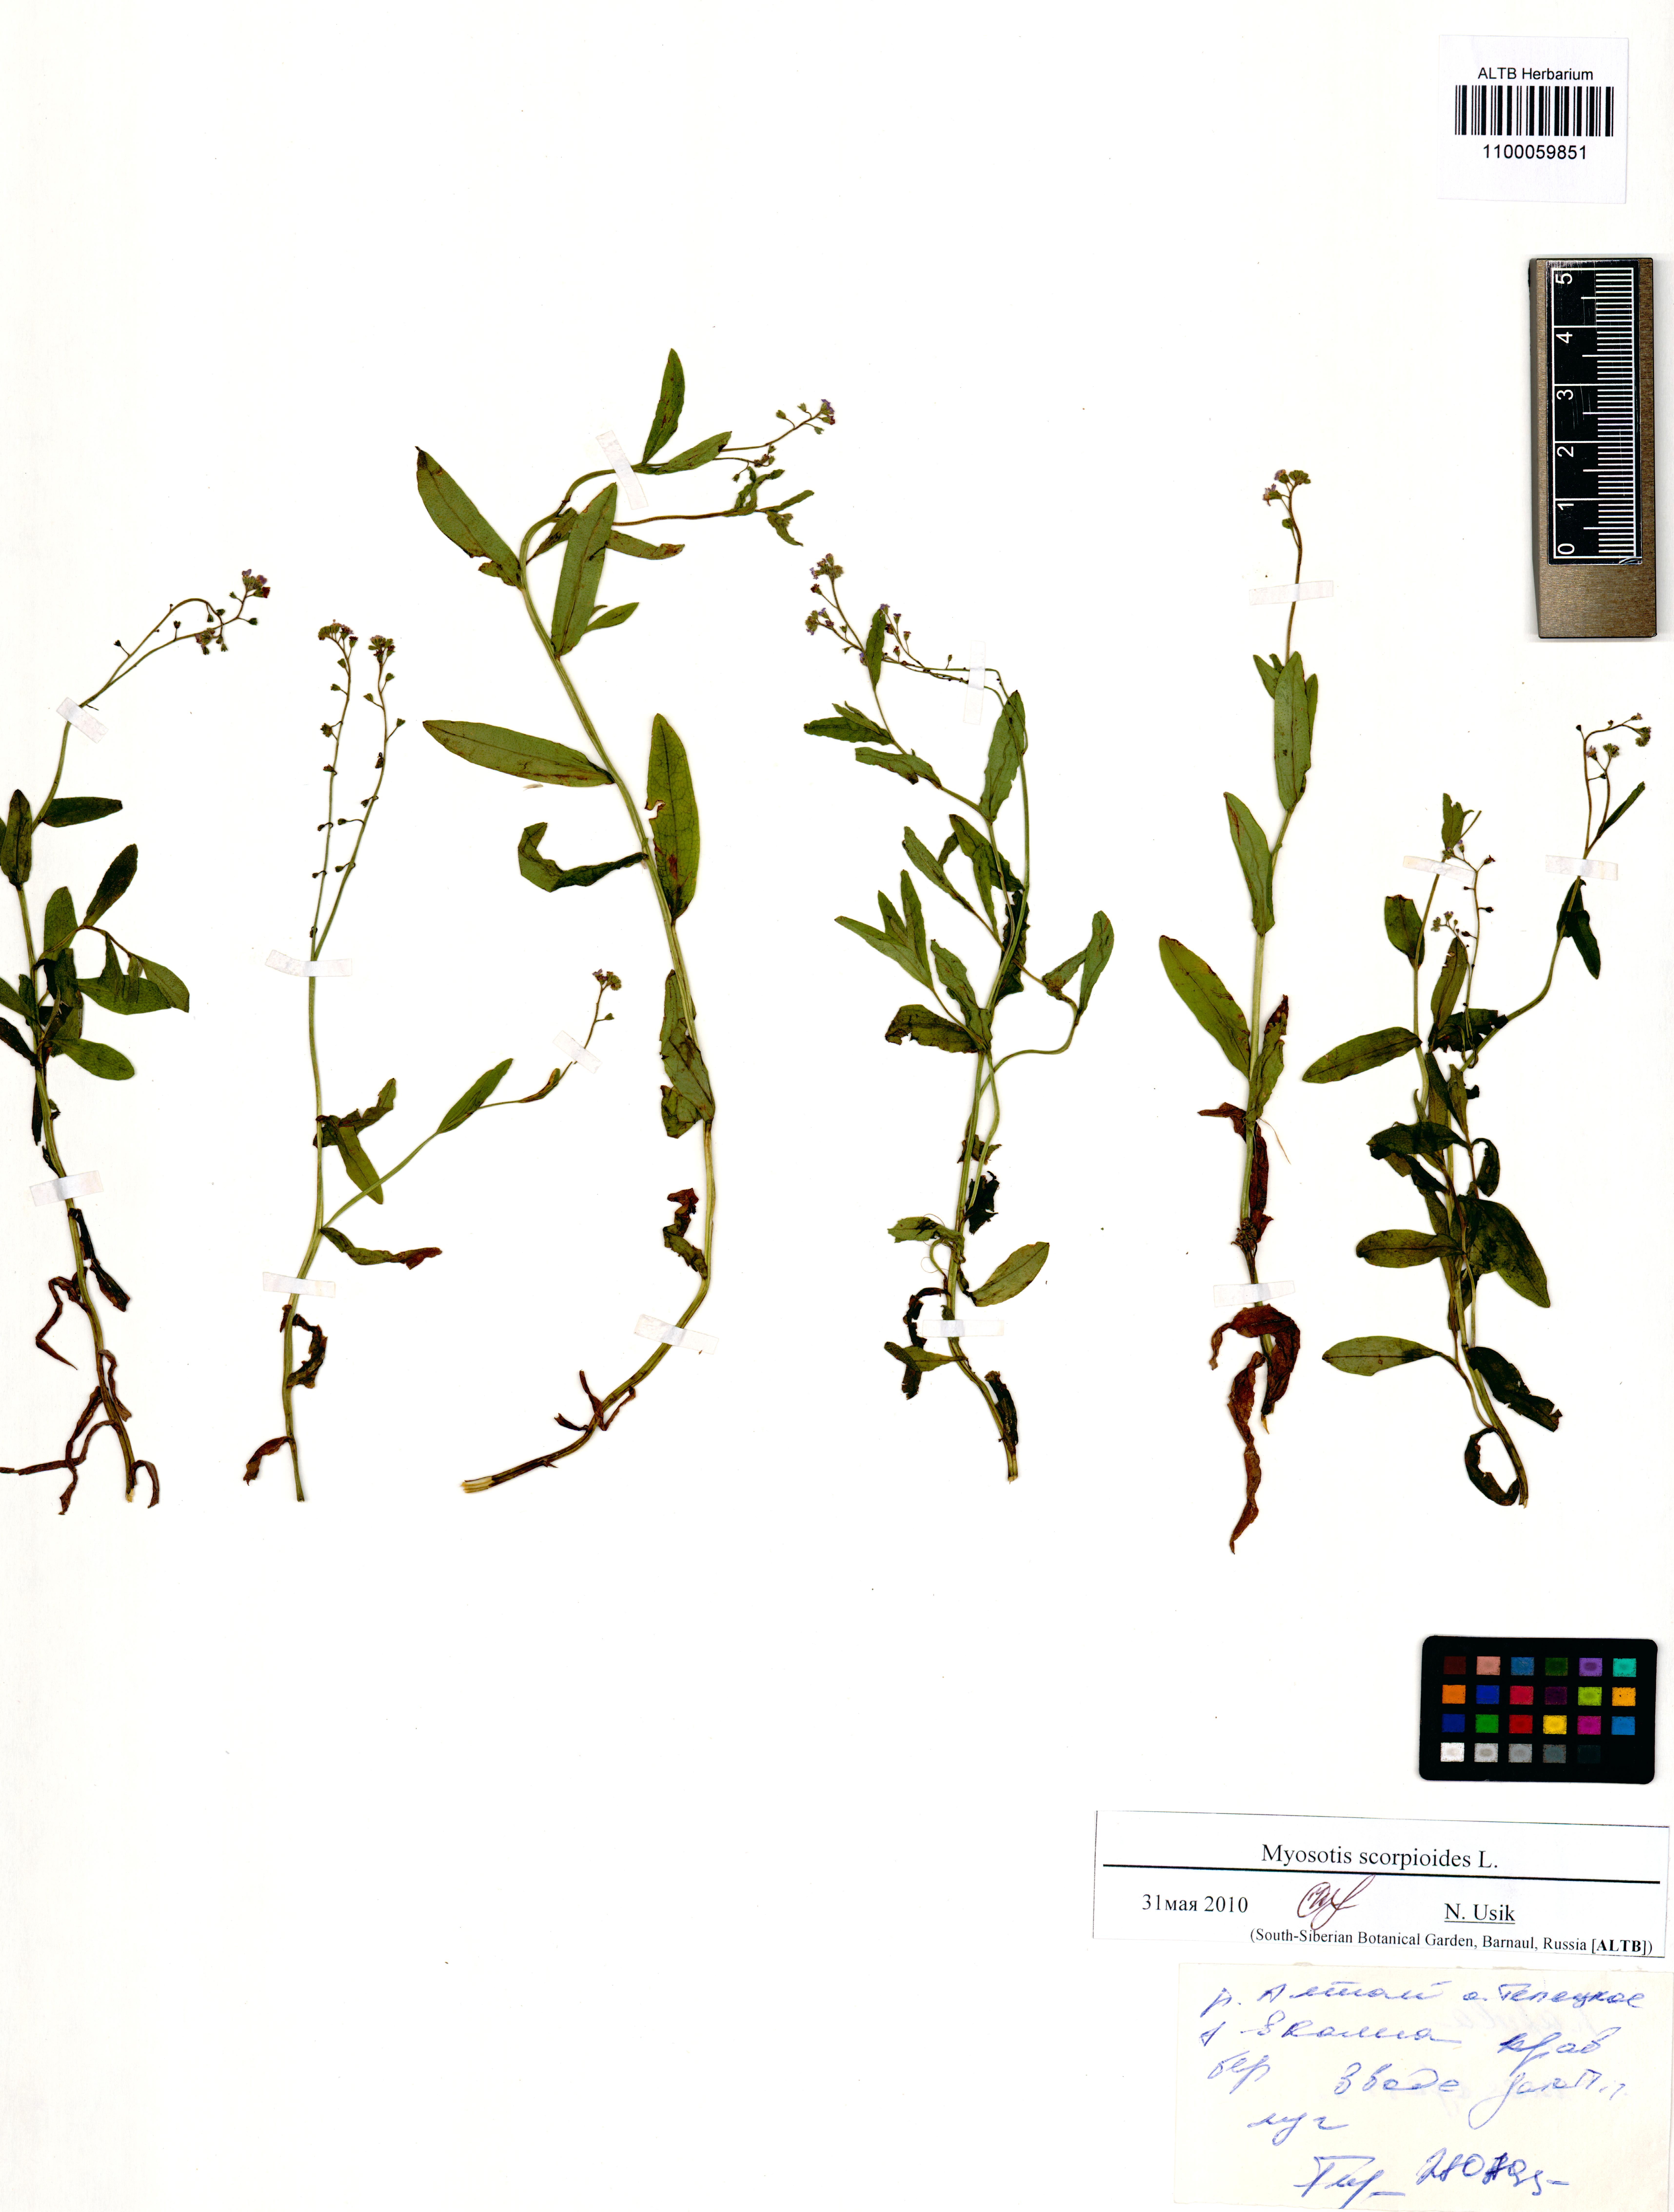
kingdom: Plantae
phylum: Tracheophyta
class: Magnoliopsida
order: Boraginales
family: Boraginaceae
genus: Myosotis
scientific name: Myosotis scorpioides
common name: Water forget-me-not
